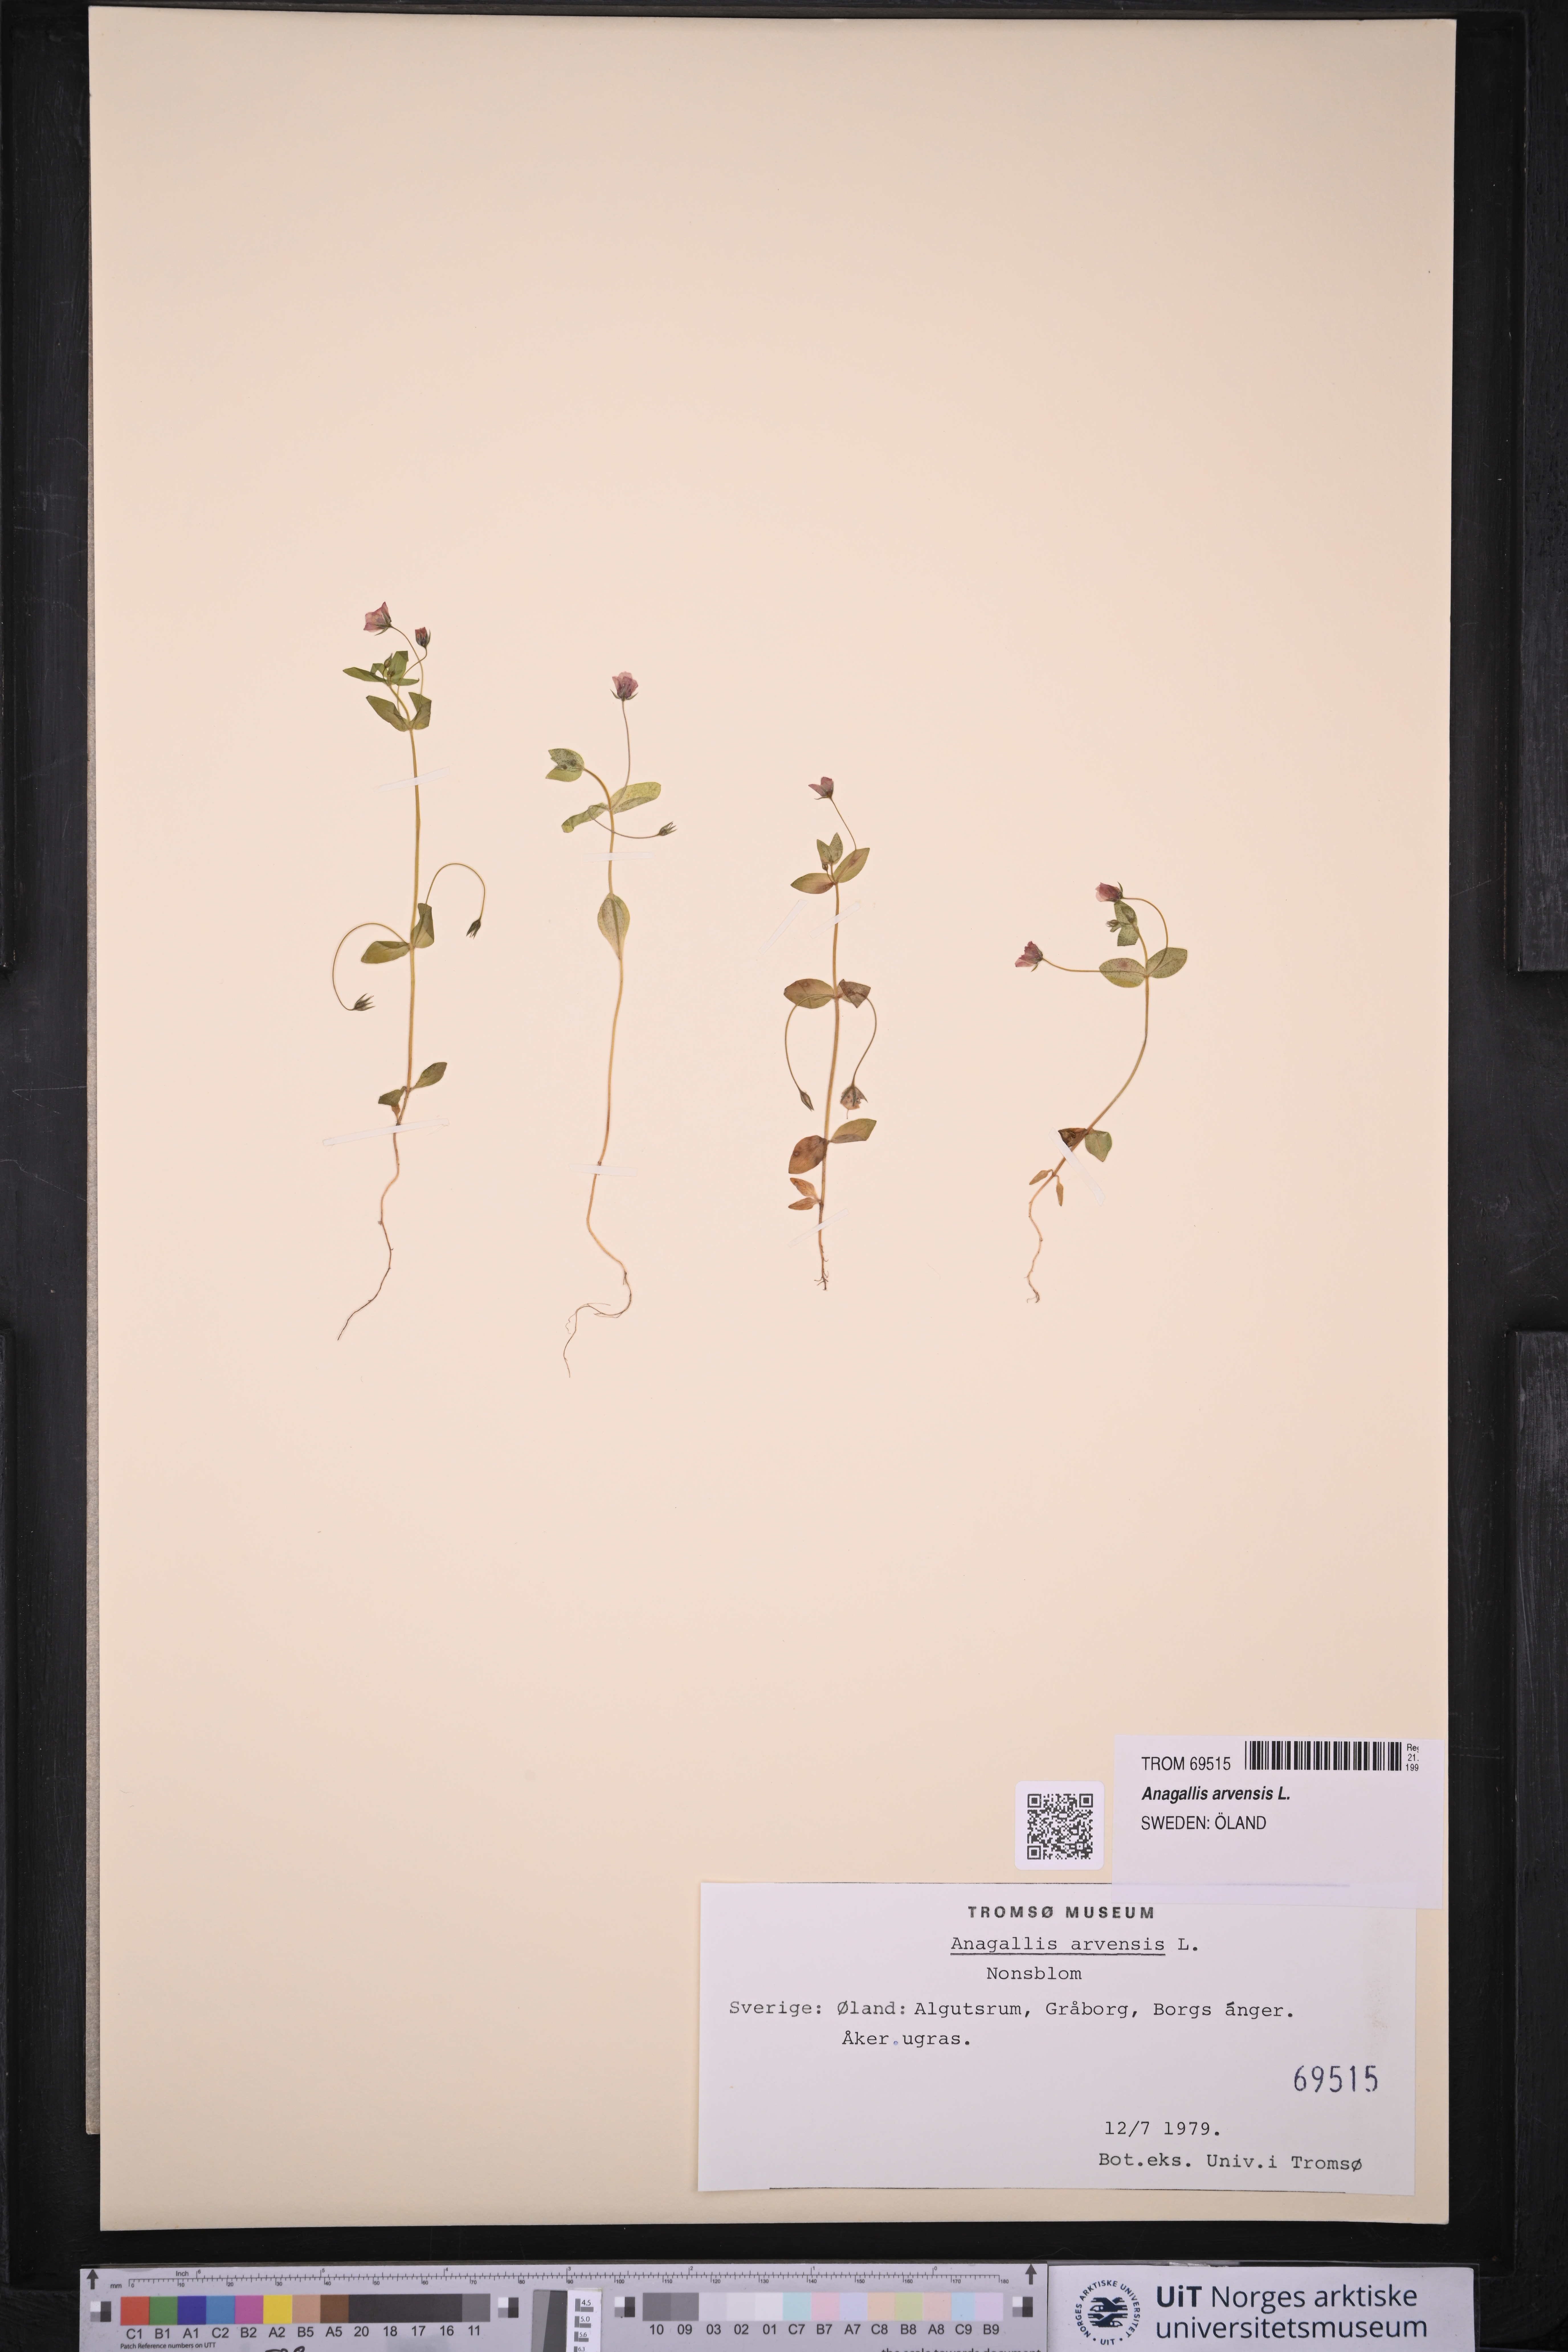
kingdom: Plantae
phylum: Tracheophyta
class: Magnoliopsida
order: Ericales
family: Primulaceae
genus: Lysimachia
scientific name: Lysimachia arvensis
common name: Scarlet pimpernel
